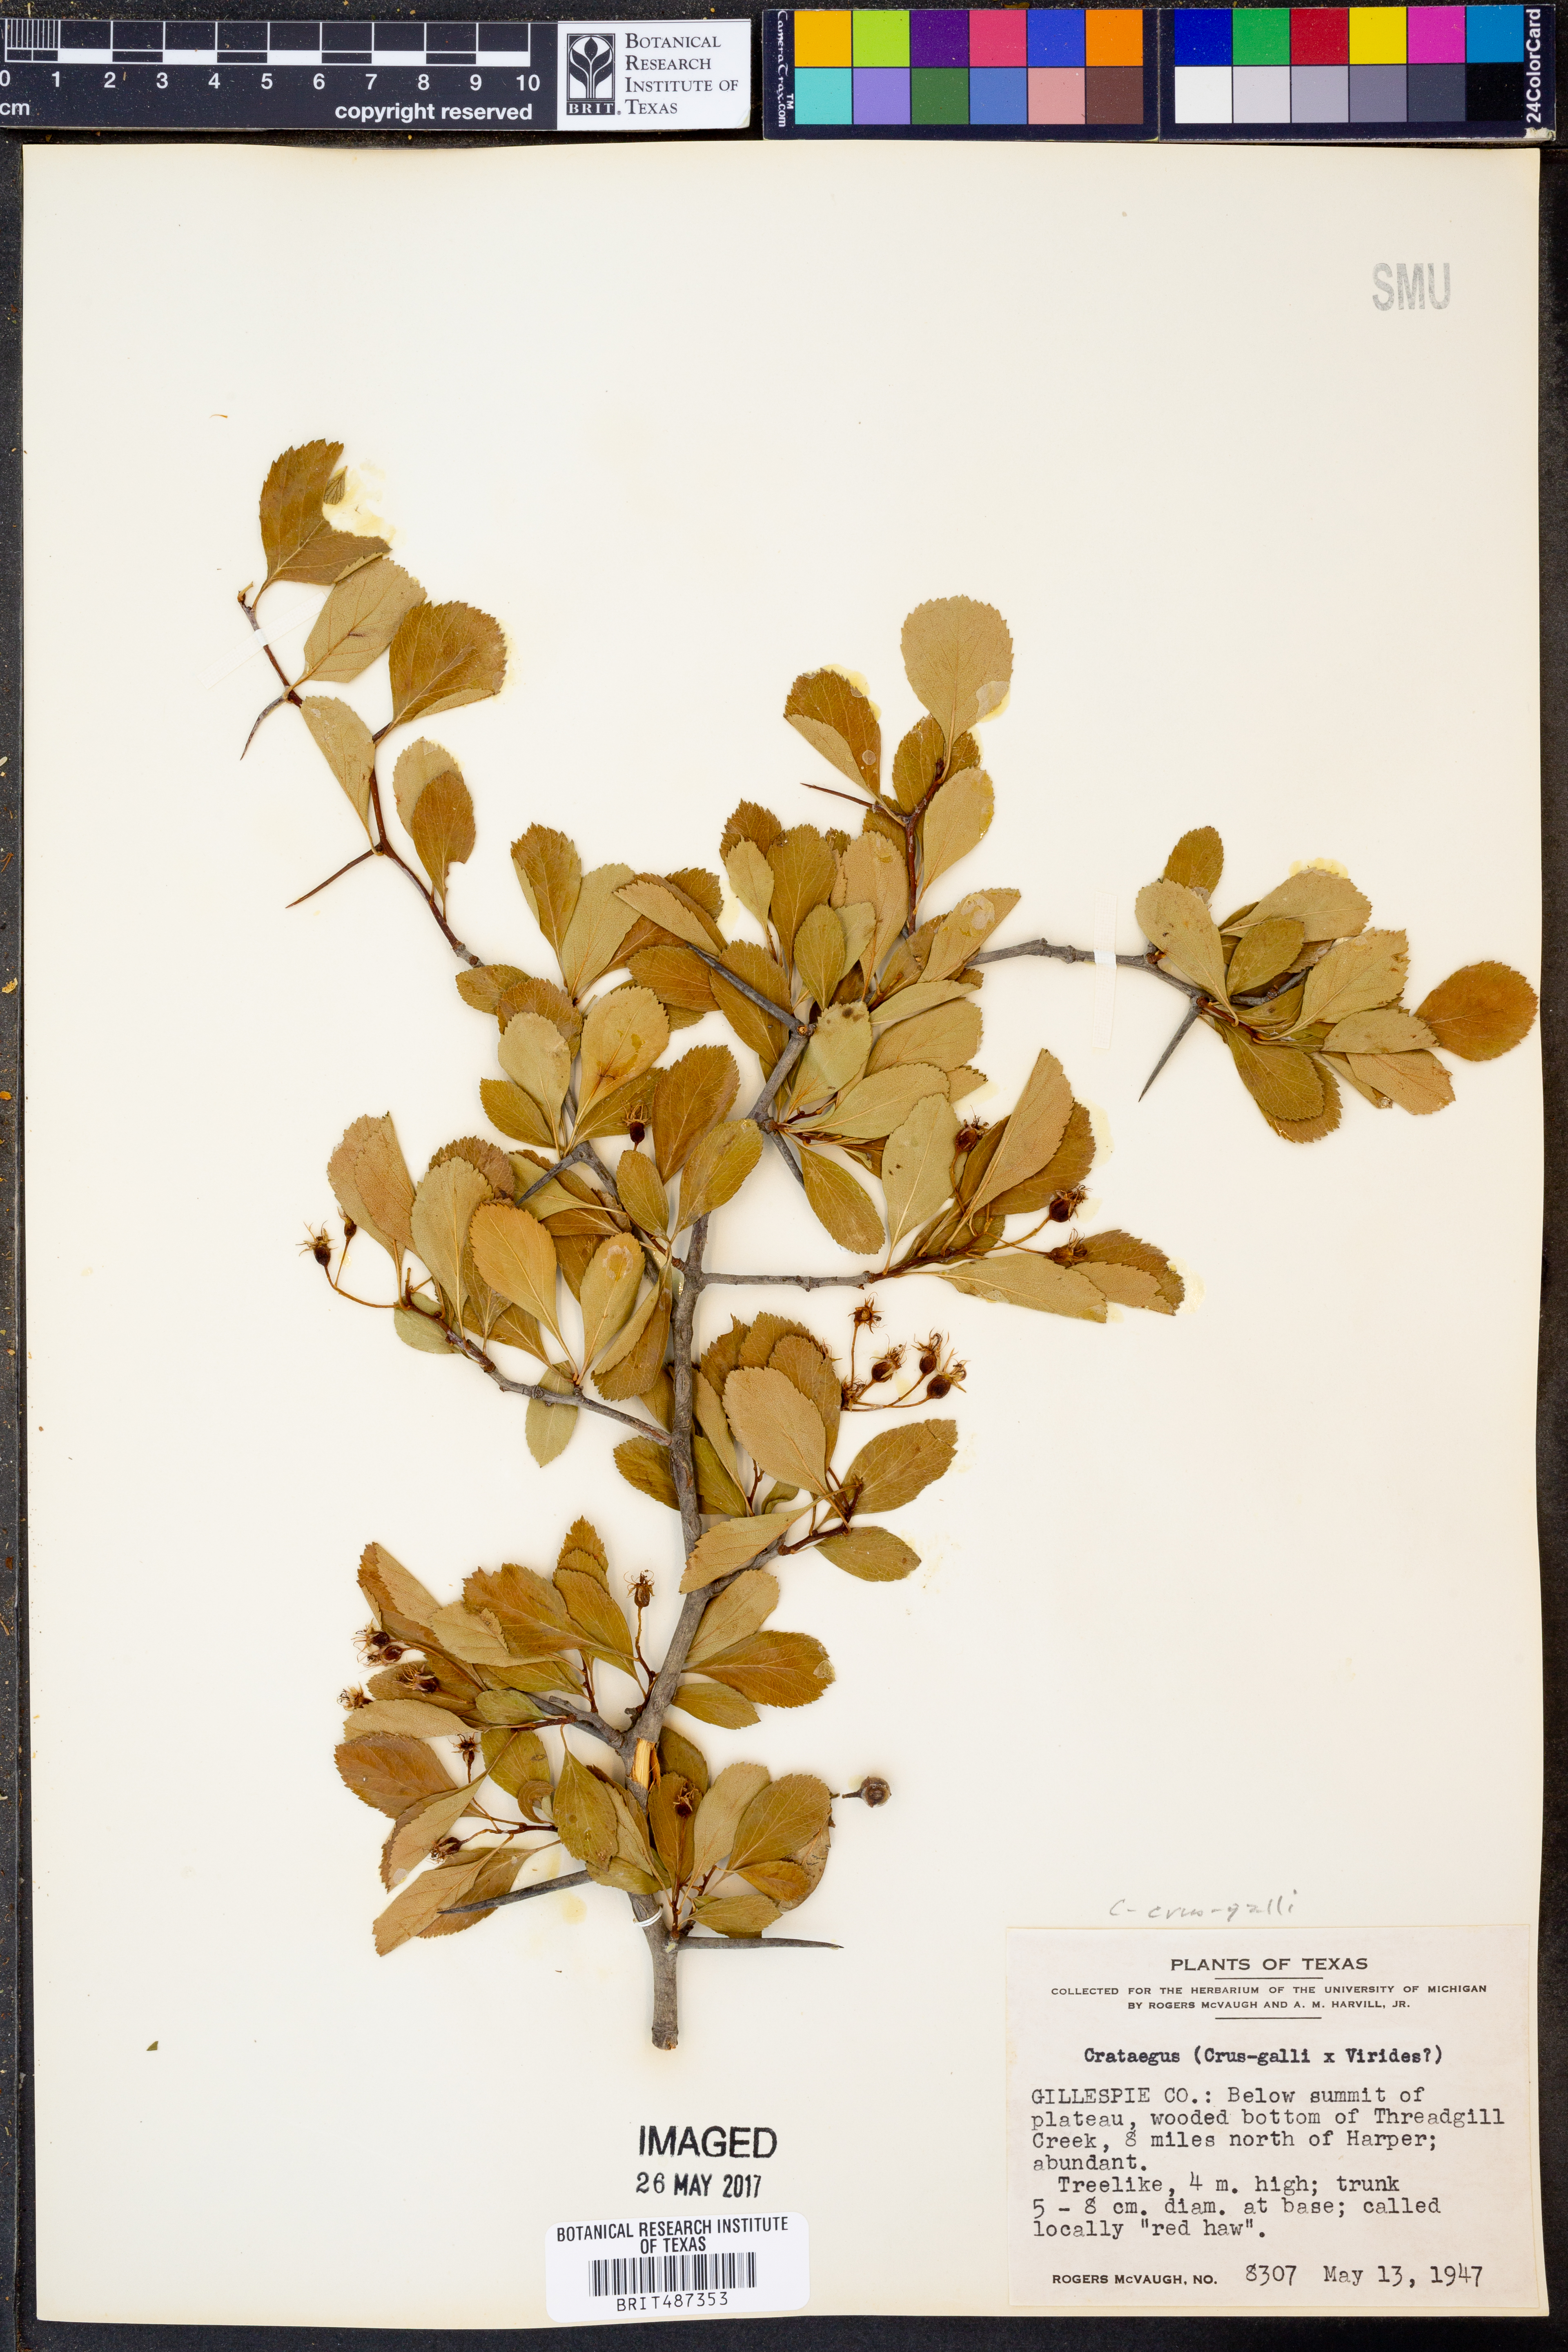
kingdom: Plantae
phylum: Tracheophyta
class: Magnoliopsida
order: Rosales
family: Rosaceae
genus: Crataegus
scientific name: Crataegus crus-galli
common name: Cockspurthorn
